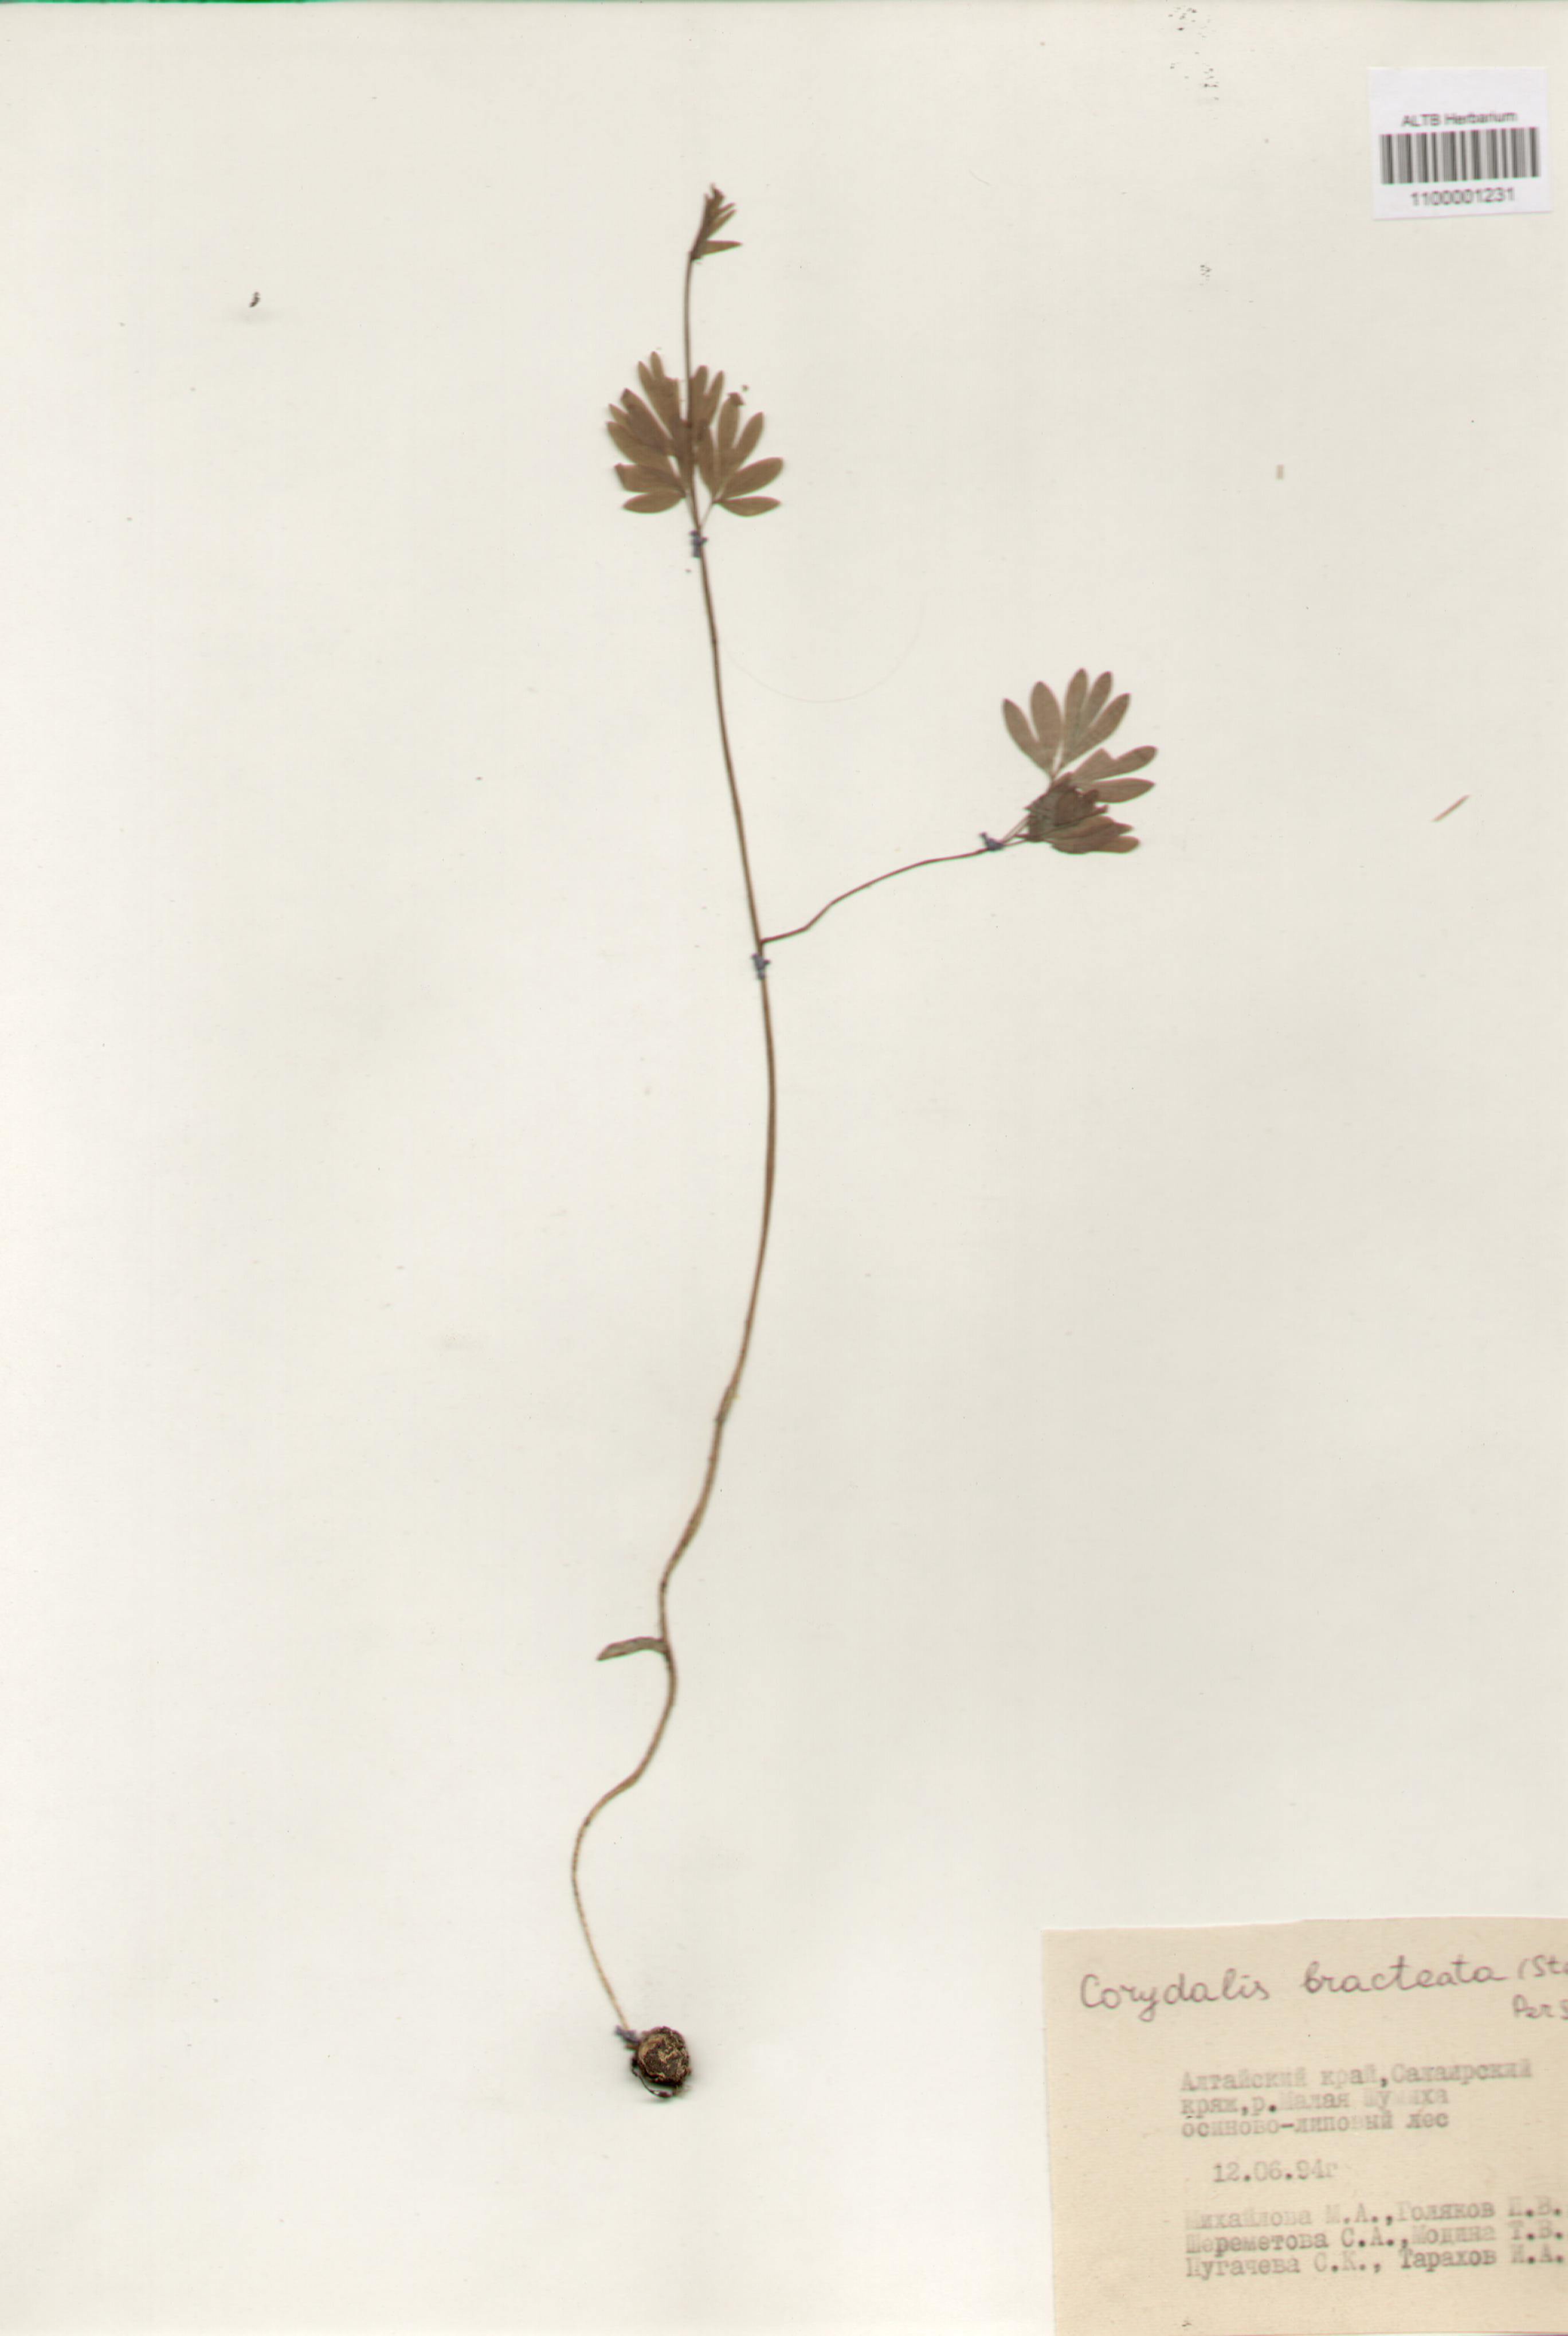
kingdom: Plantae
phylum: Tracheophyta
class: Magnoliopsida
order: Ranunculales
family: Papaveraceae
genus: Corydalis
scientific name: Corydalis bracteata
